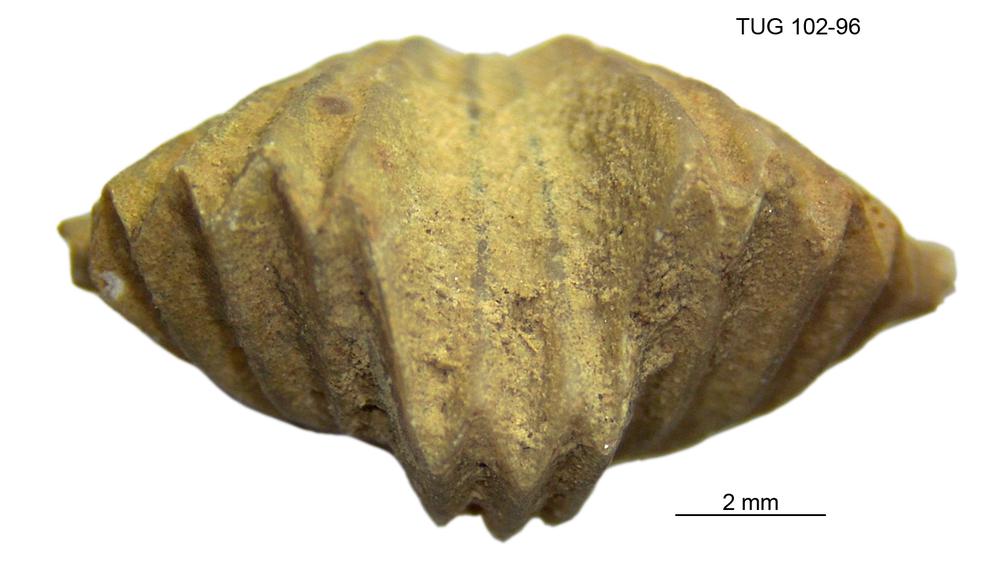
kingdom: Animalia
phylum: Brachiopoda
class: Rhynchonellata
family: Plectorthidae
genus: Platystrophia
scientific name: Platystrophia dentata
